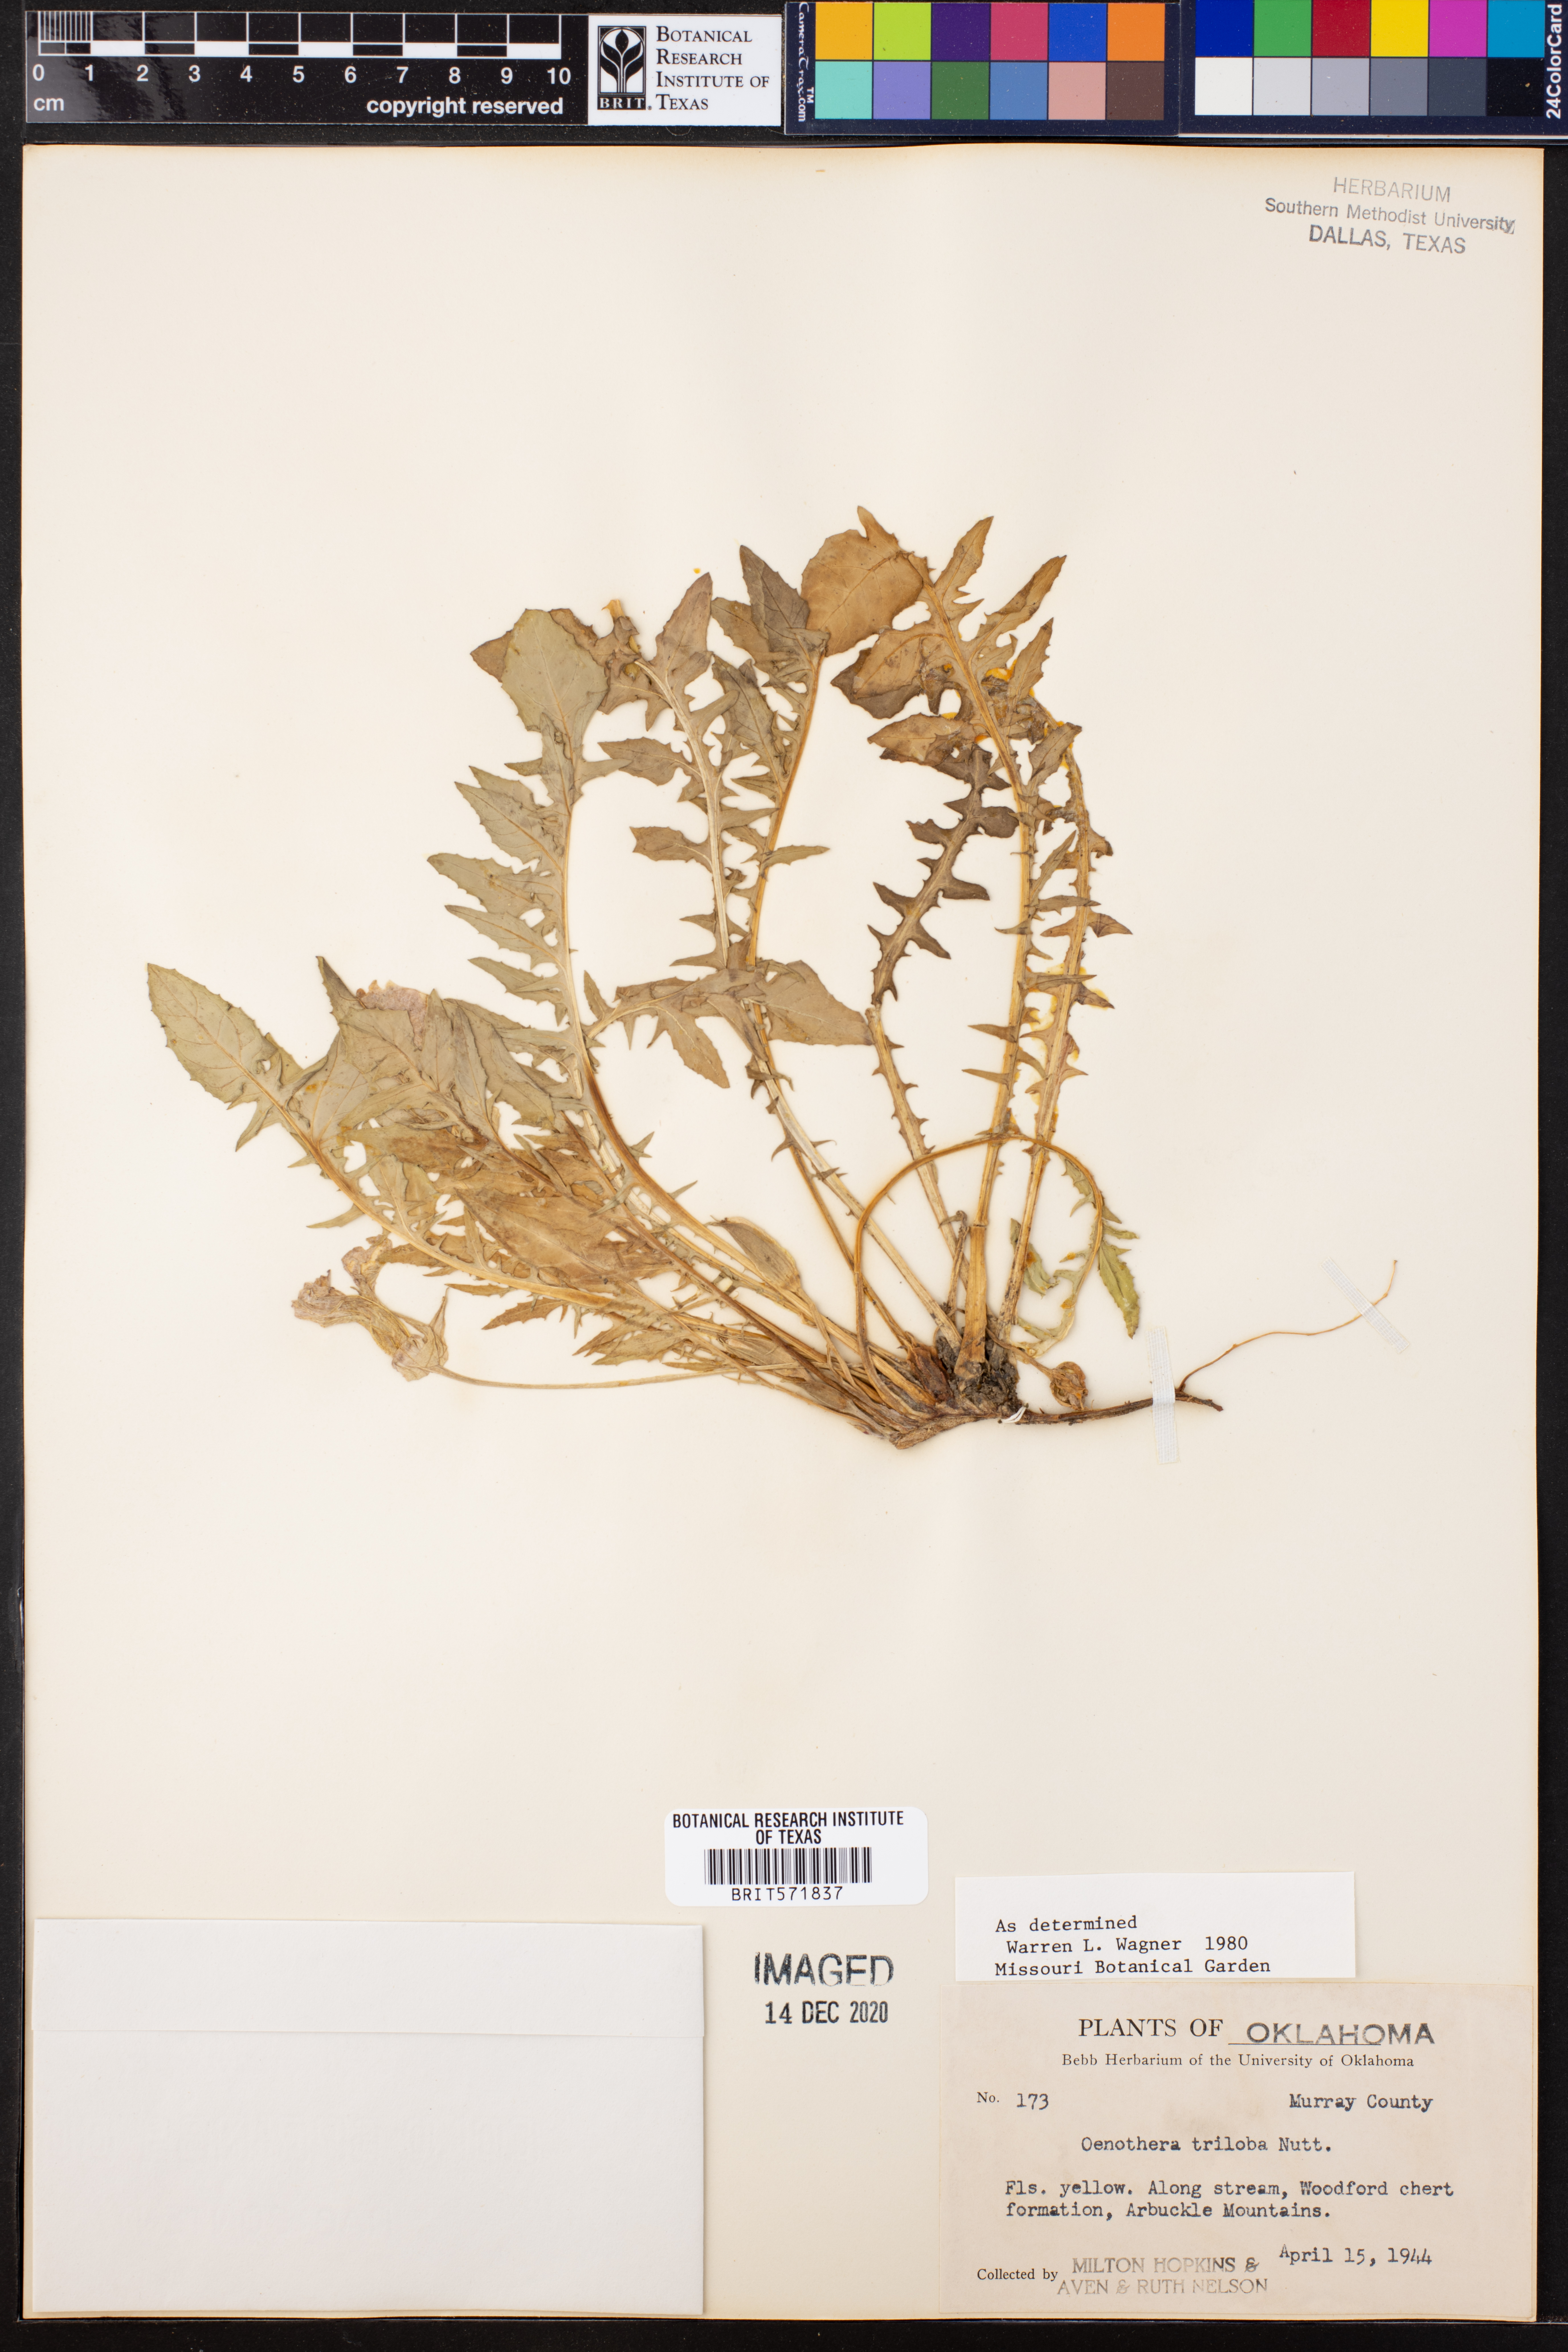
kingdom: Plantae
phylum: Tracheophyta
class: Magnoliopsida
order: Myrtales
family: Onagraceae
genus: Oenothera
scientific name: Oenothera triloba
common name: Sessile evening-primrose
